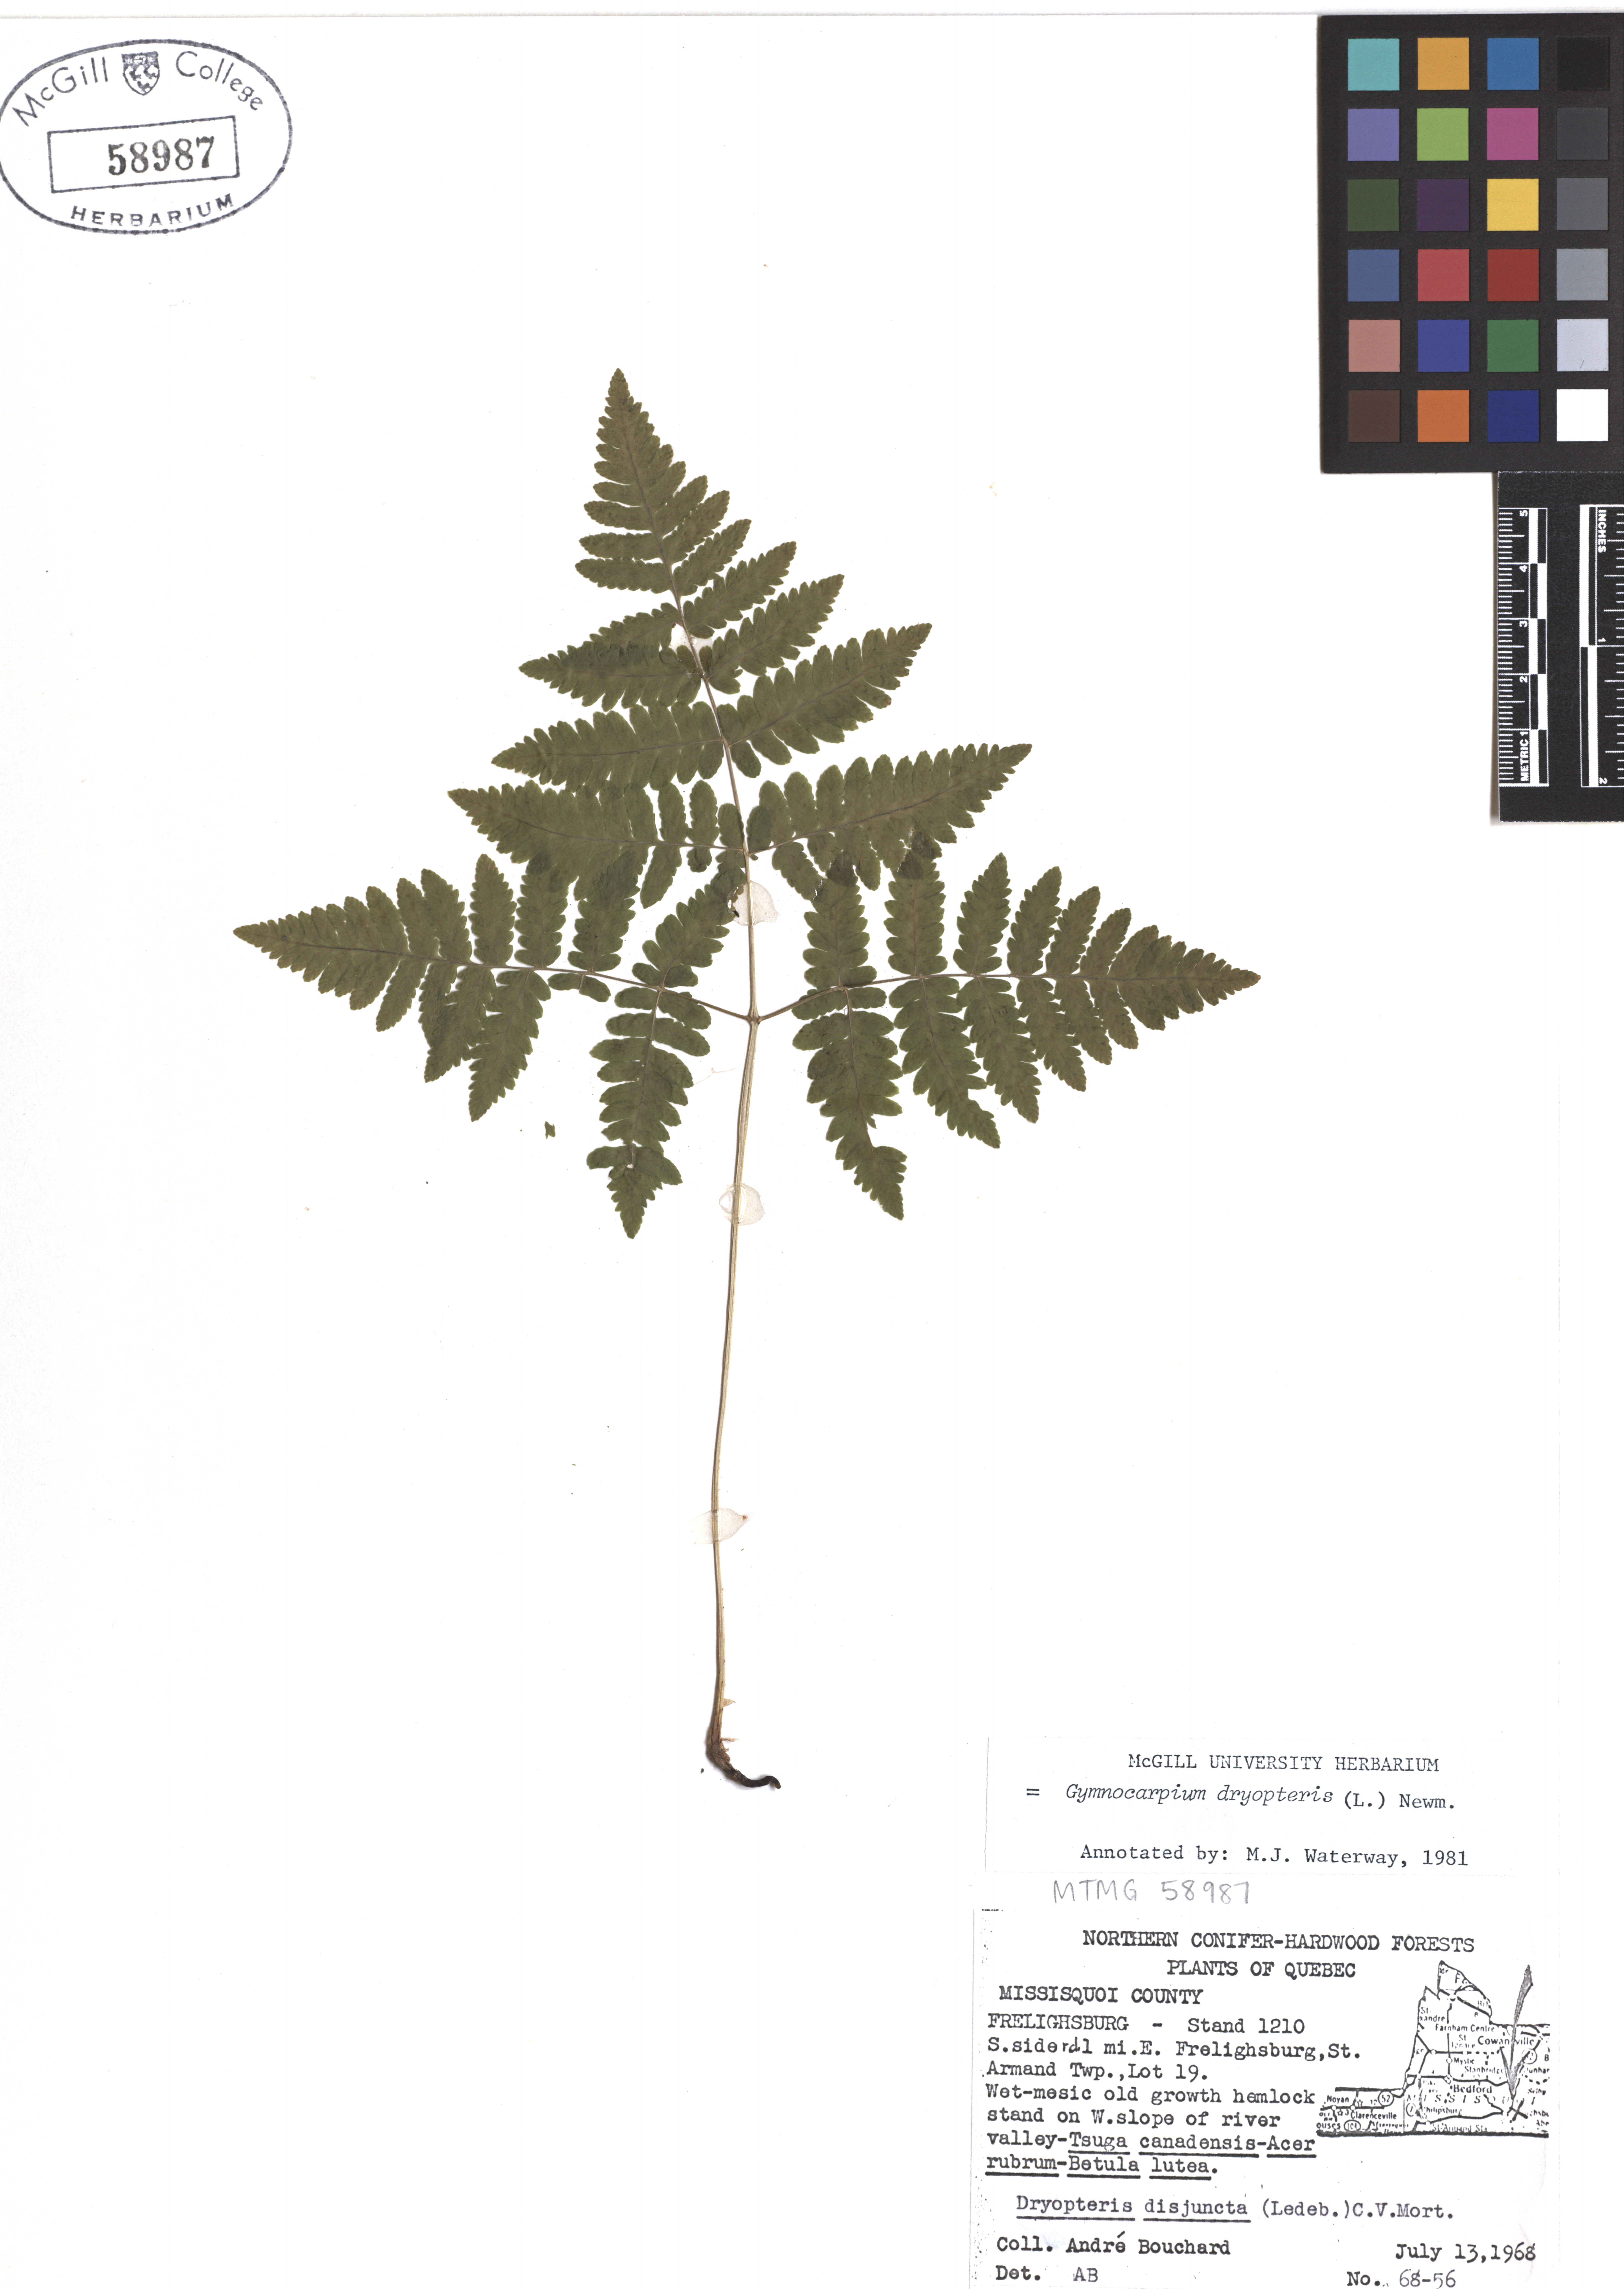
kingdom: Plantae
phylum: Tracheophyta
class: Polypodiopsida
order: Polypodiales
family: Cystopteridaceae
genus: Gymnocarpium
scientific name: Gymnocarpium dryopteris
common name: Oak fern
